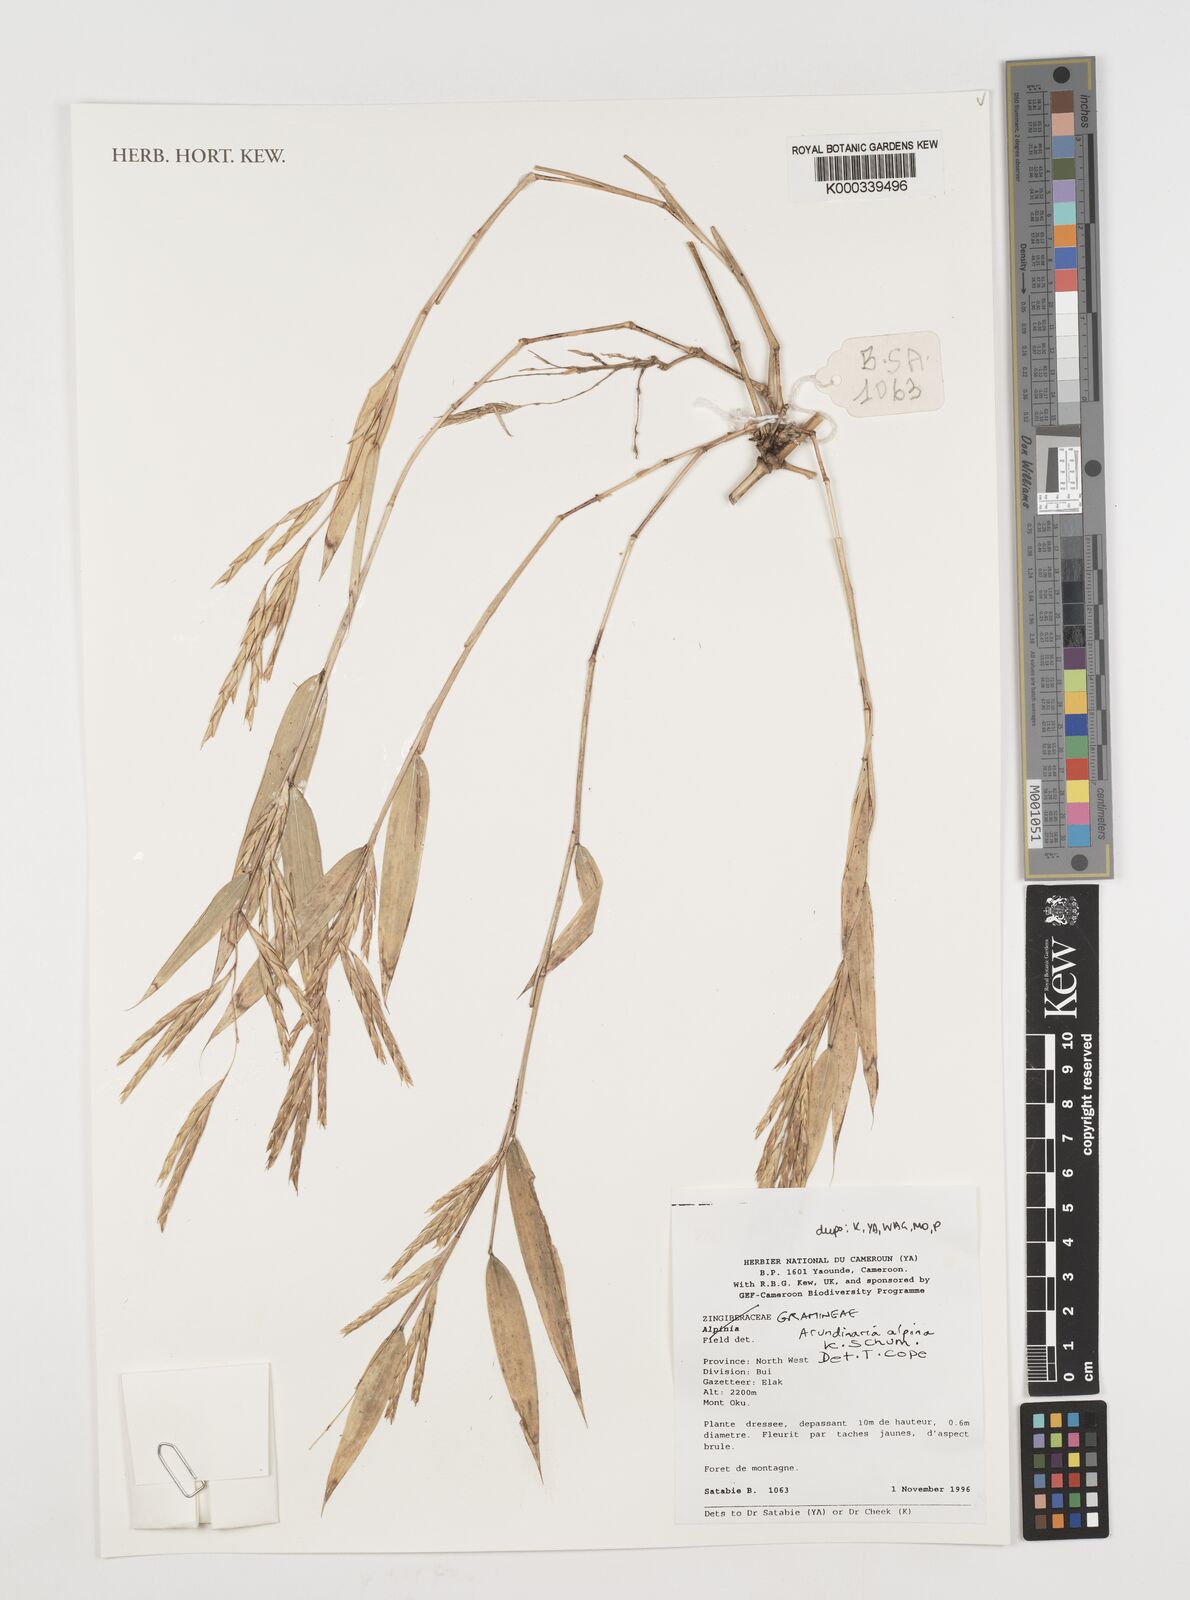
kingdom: Plantae
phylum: Tracheophyta
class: Liliopsida
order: Poales
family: Poaceae
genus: Oldeania
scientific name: Oldeania alpina
